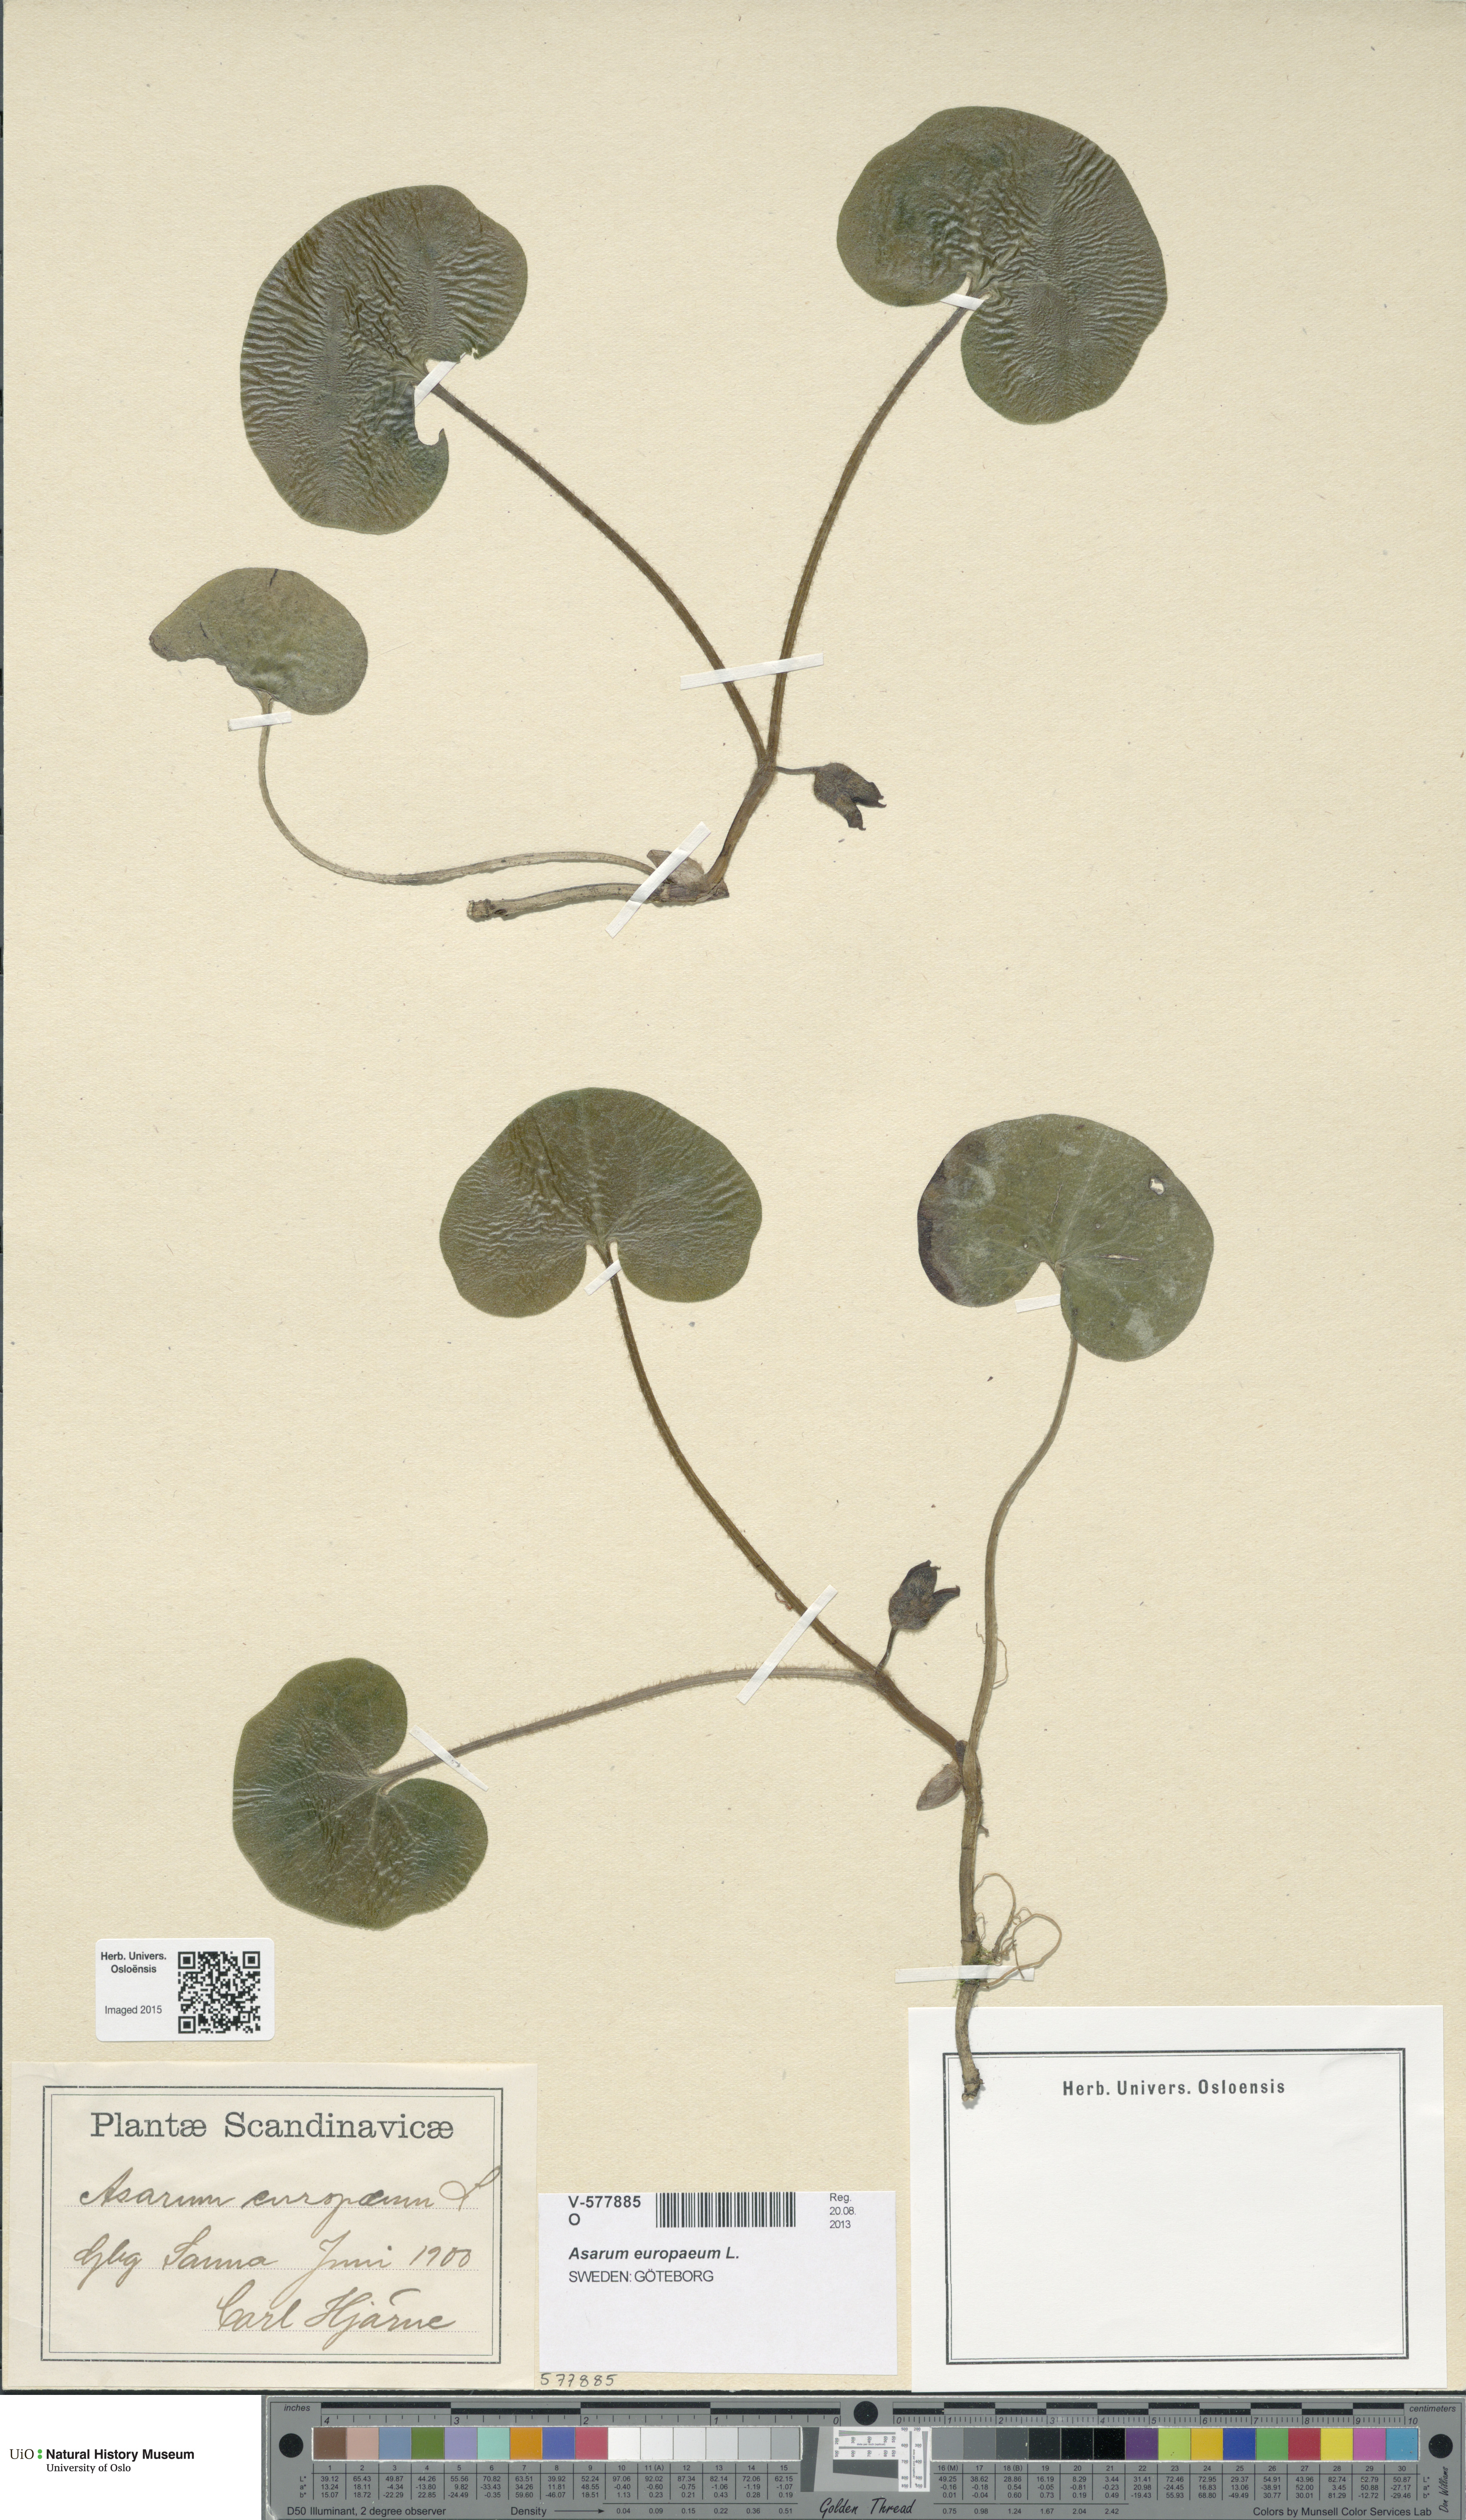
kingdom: Plantae
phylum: Tracheophyta
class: Magnoliopsida
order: Piperales
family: Aristolochiaceae
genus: Asarum
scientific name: Asarum europaeum
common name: Asarabacca
